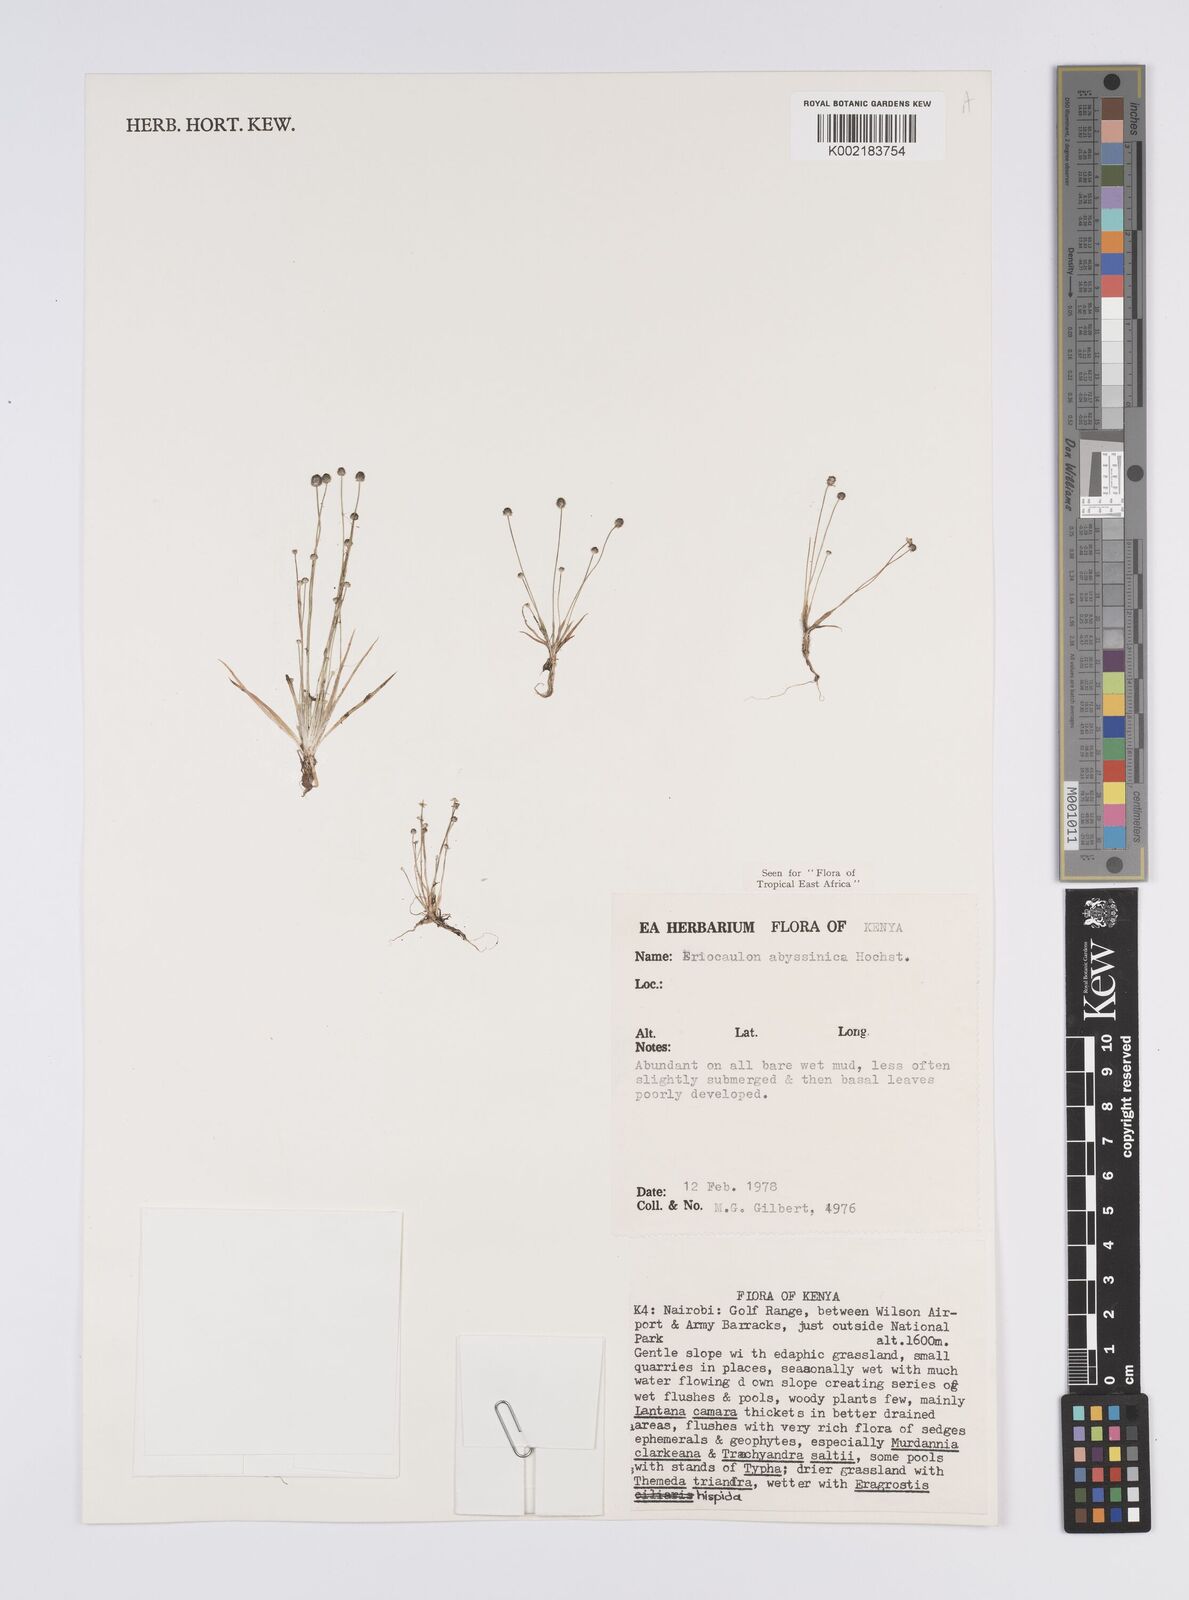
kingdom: Plantae
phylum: Tracheophyta
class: Liliopsida
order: Poales
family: Eriocaulaceae
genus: Eriocaulon
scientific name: Eriocaulon abyssinicum
